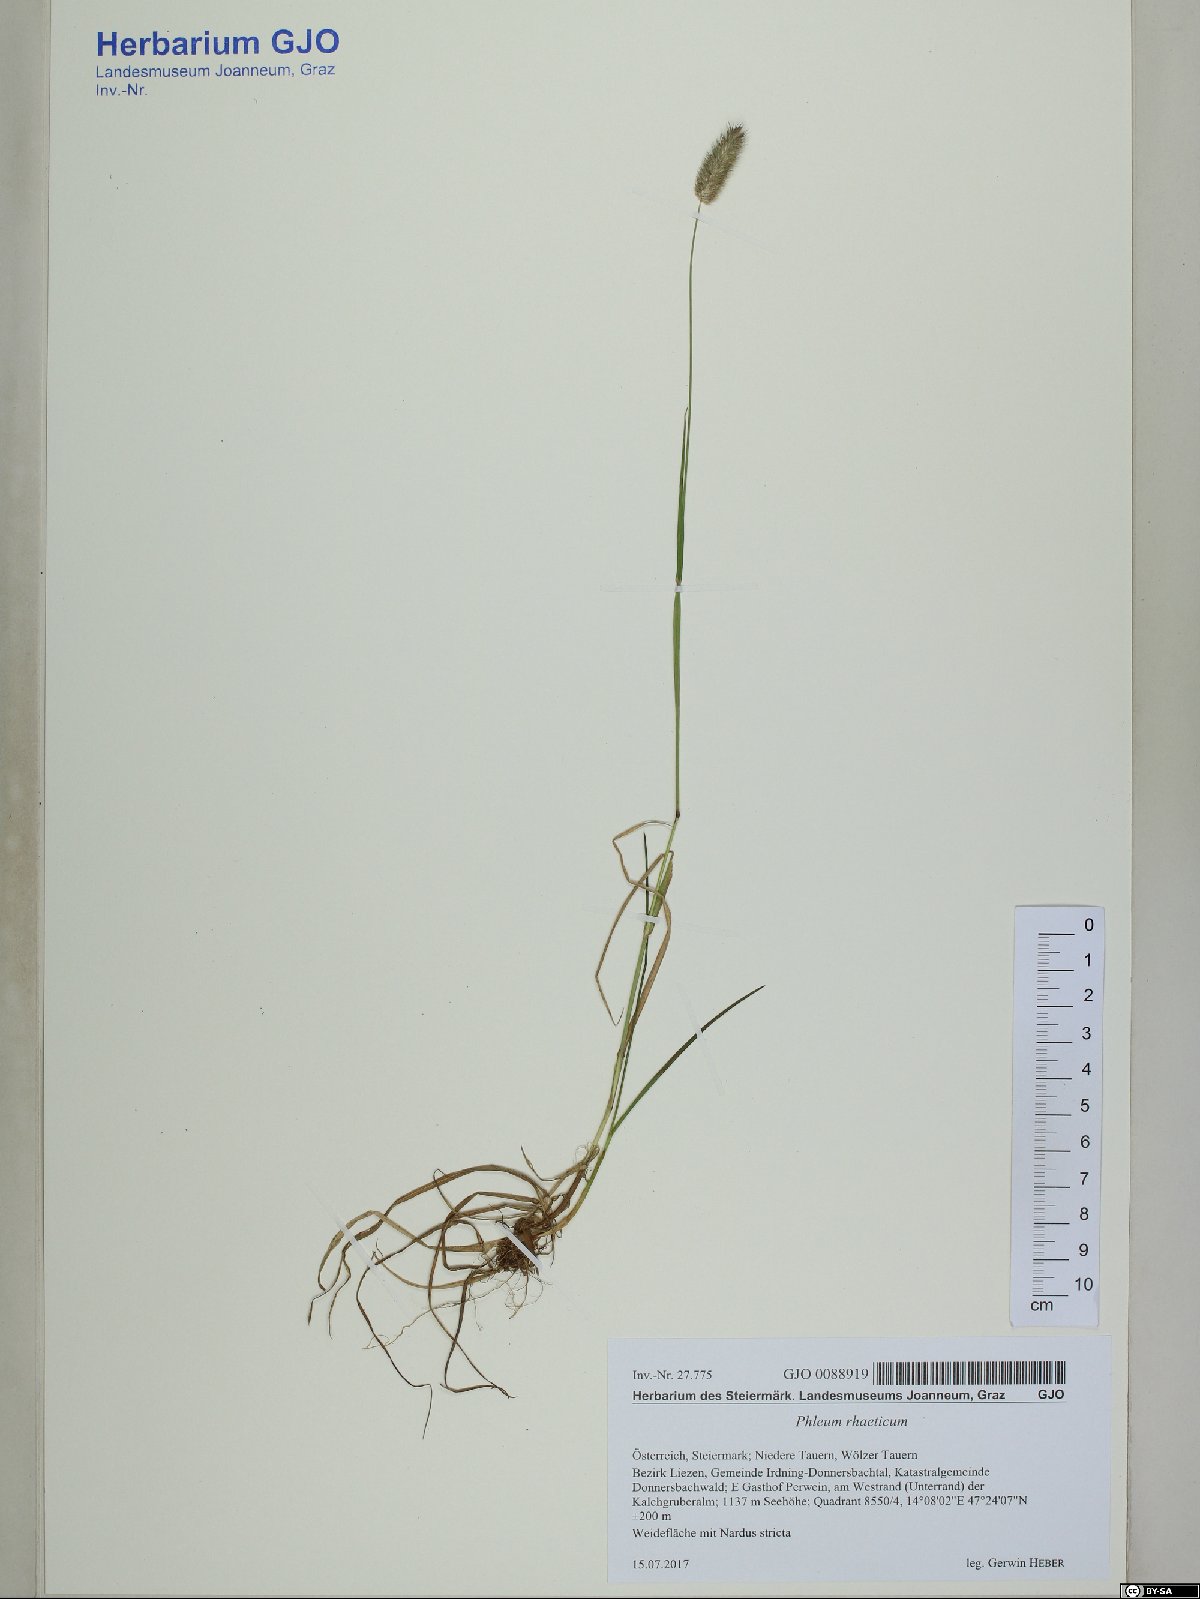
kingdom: Plantae
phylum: Tracheophyta
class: Liliopsida
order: Poales
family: Poaceae
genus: Phleum
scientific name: Phleum alpinum
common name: Alpine cat's-tail
